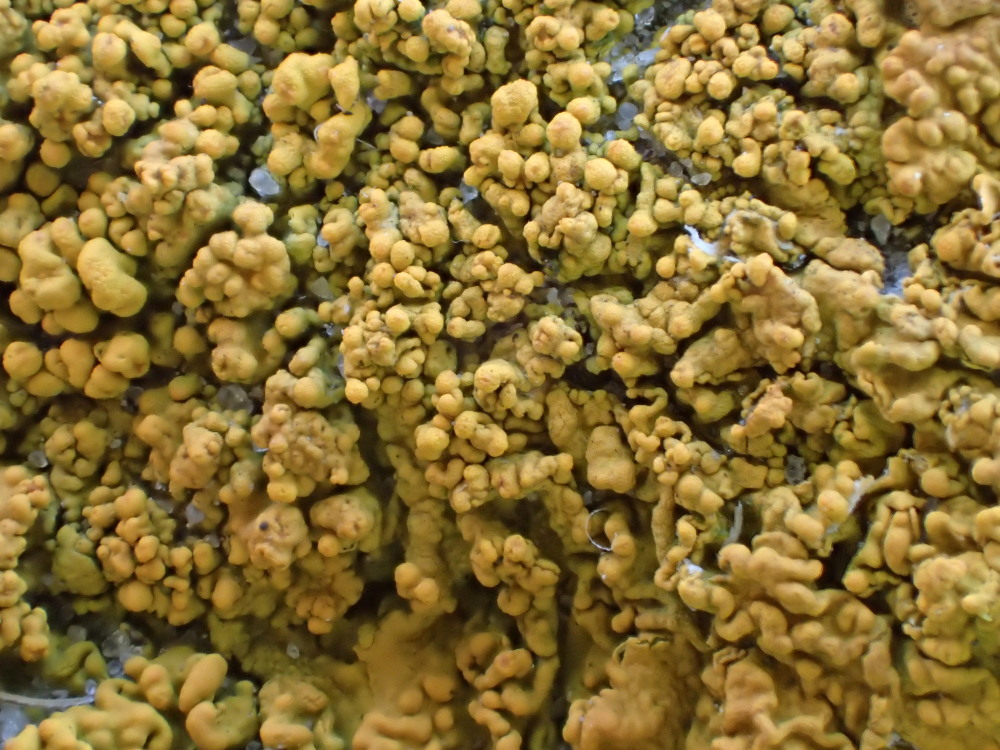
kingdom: Fungi
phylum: Ascomycota
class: Lecanoromycetes
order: Teloschistales
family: Teloschistaceae
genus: Xanthoria
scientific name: Xanthoria calcicola
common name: vortet væggelav
